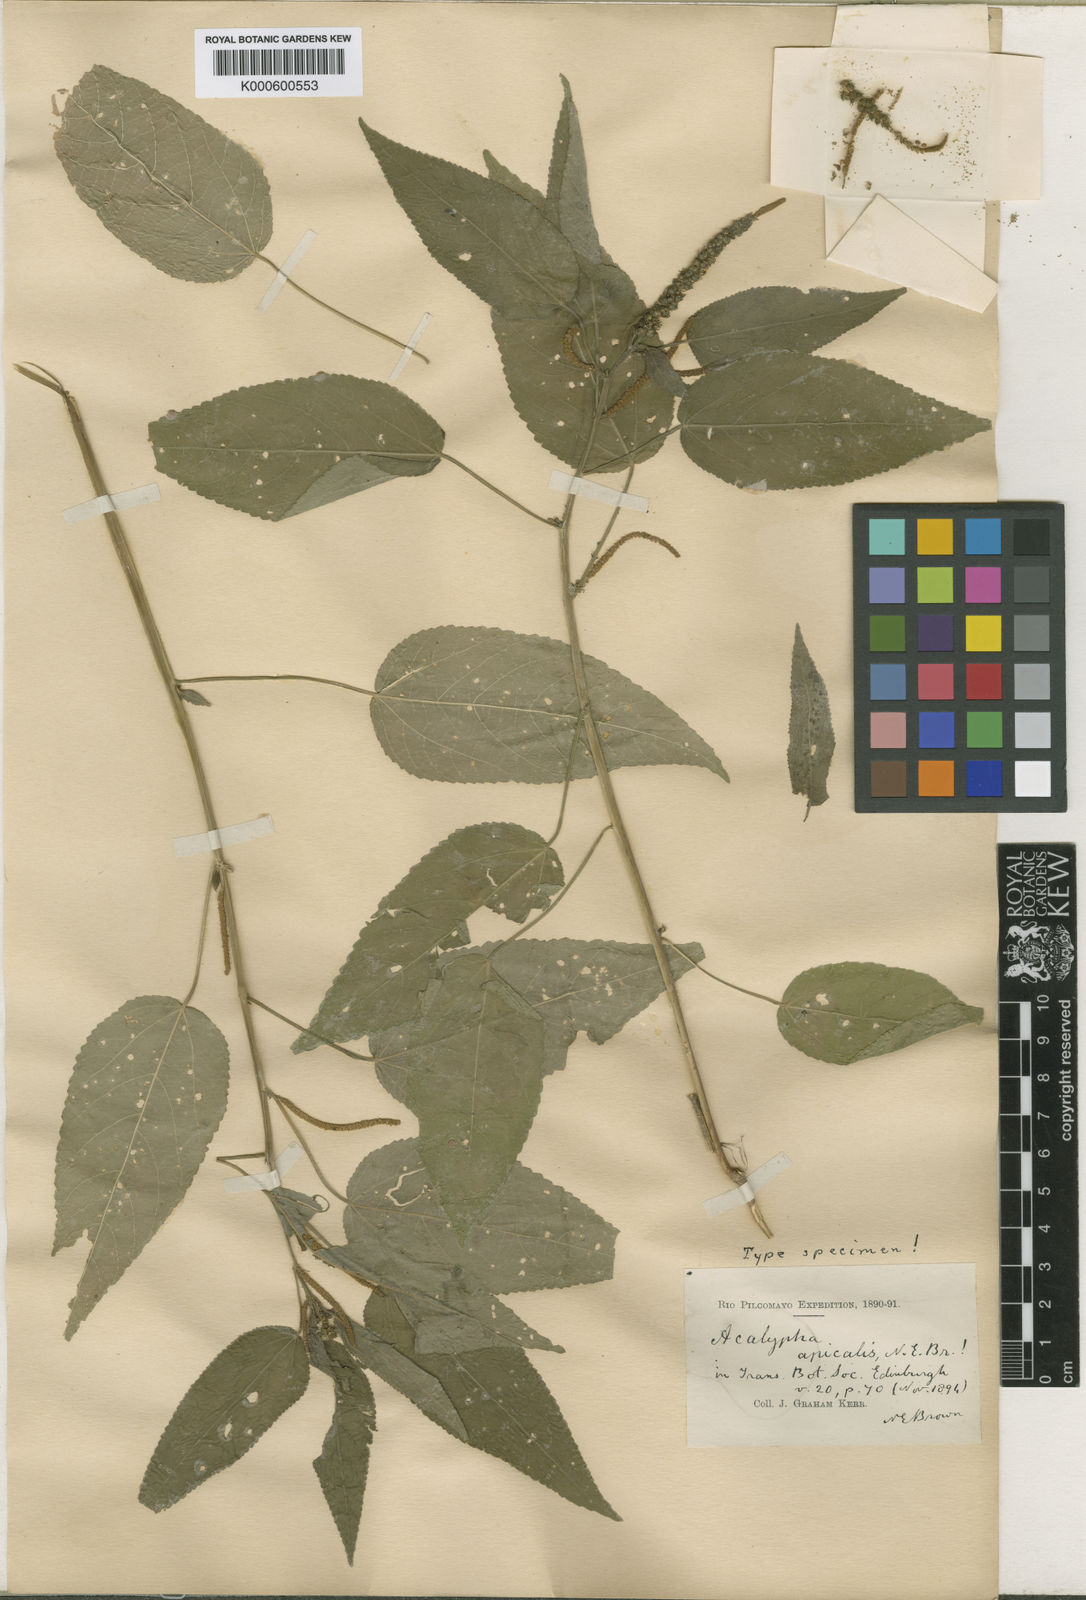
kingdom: Plantae
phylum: Tracheophyta
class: Magnoliopsida
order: Malpighiales
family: Euphorbiaceae
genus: Acalypha
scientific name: Acalypha
